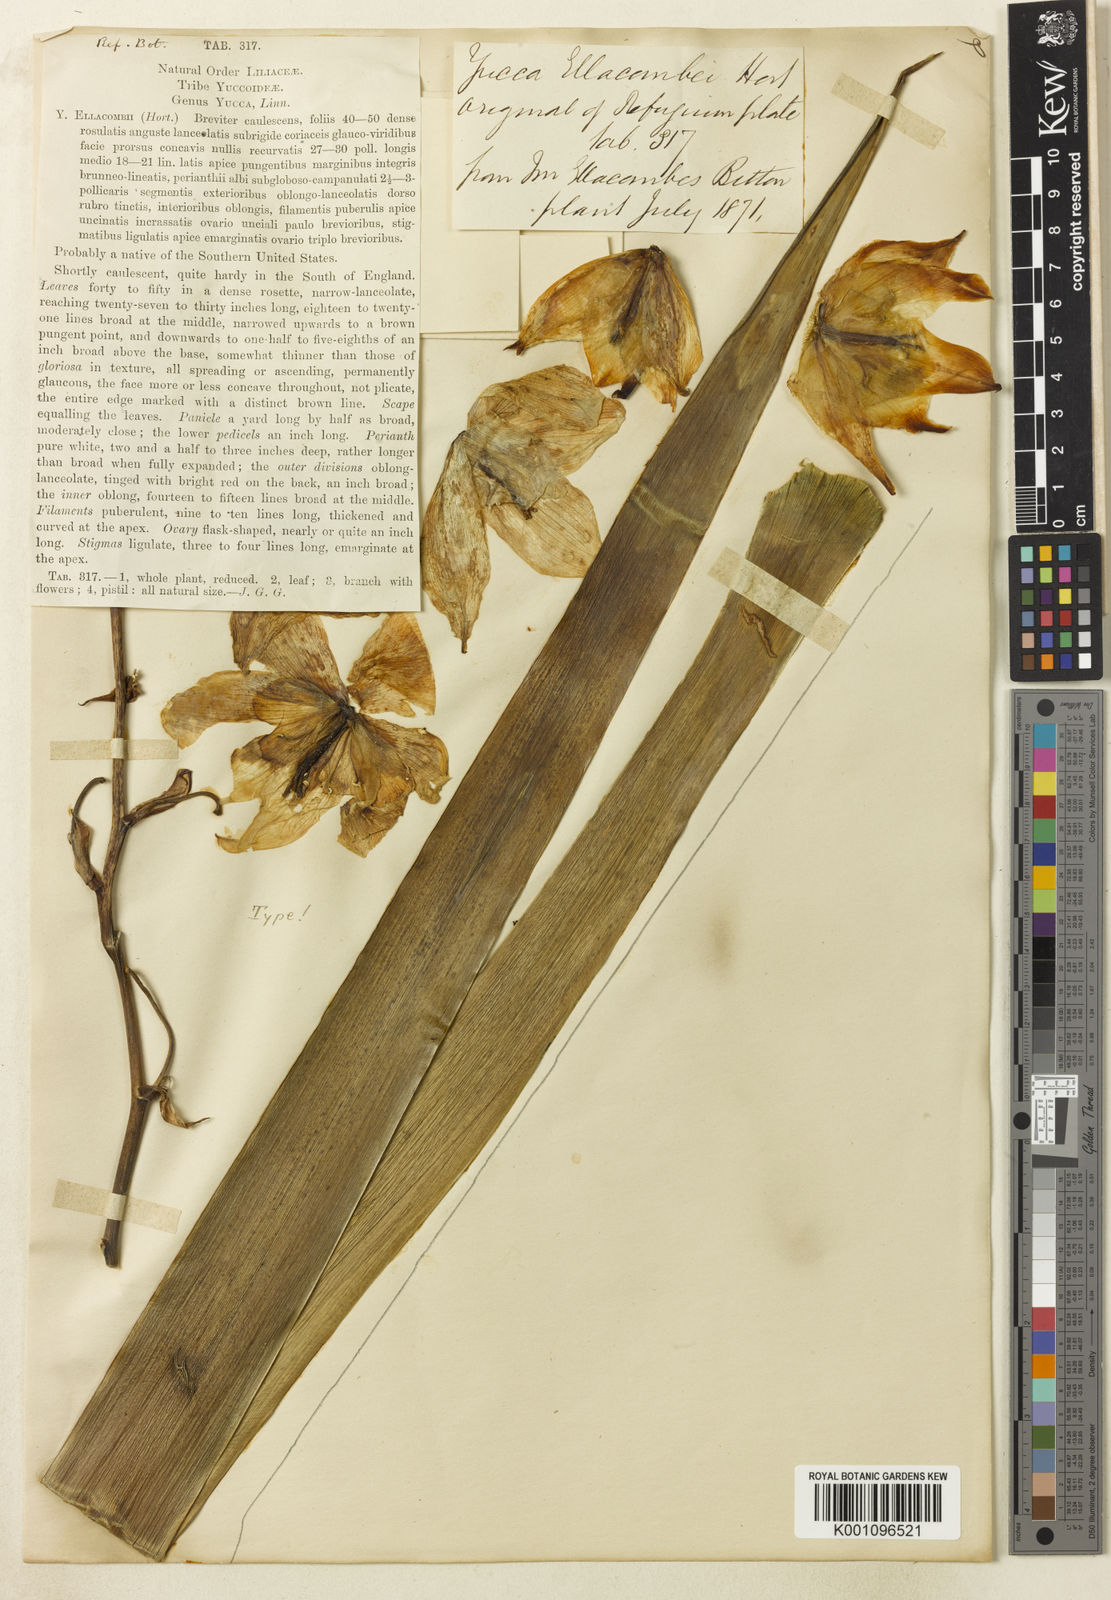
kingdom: Plantae
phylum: Tracheophyta
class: Liliopsida
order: Asparagales
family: Asparagaceae
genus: Yucca
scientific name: Yucca gloriosa
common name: Spanish-dagger
